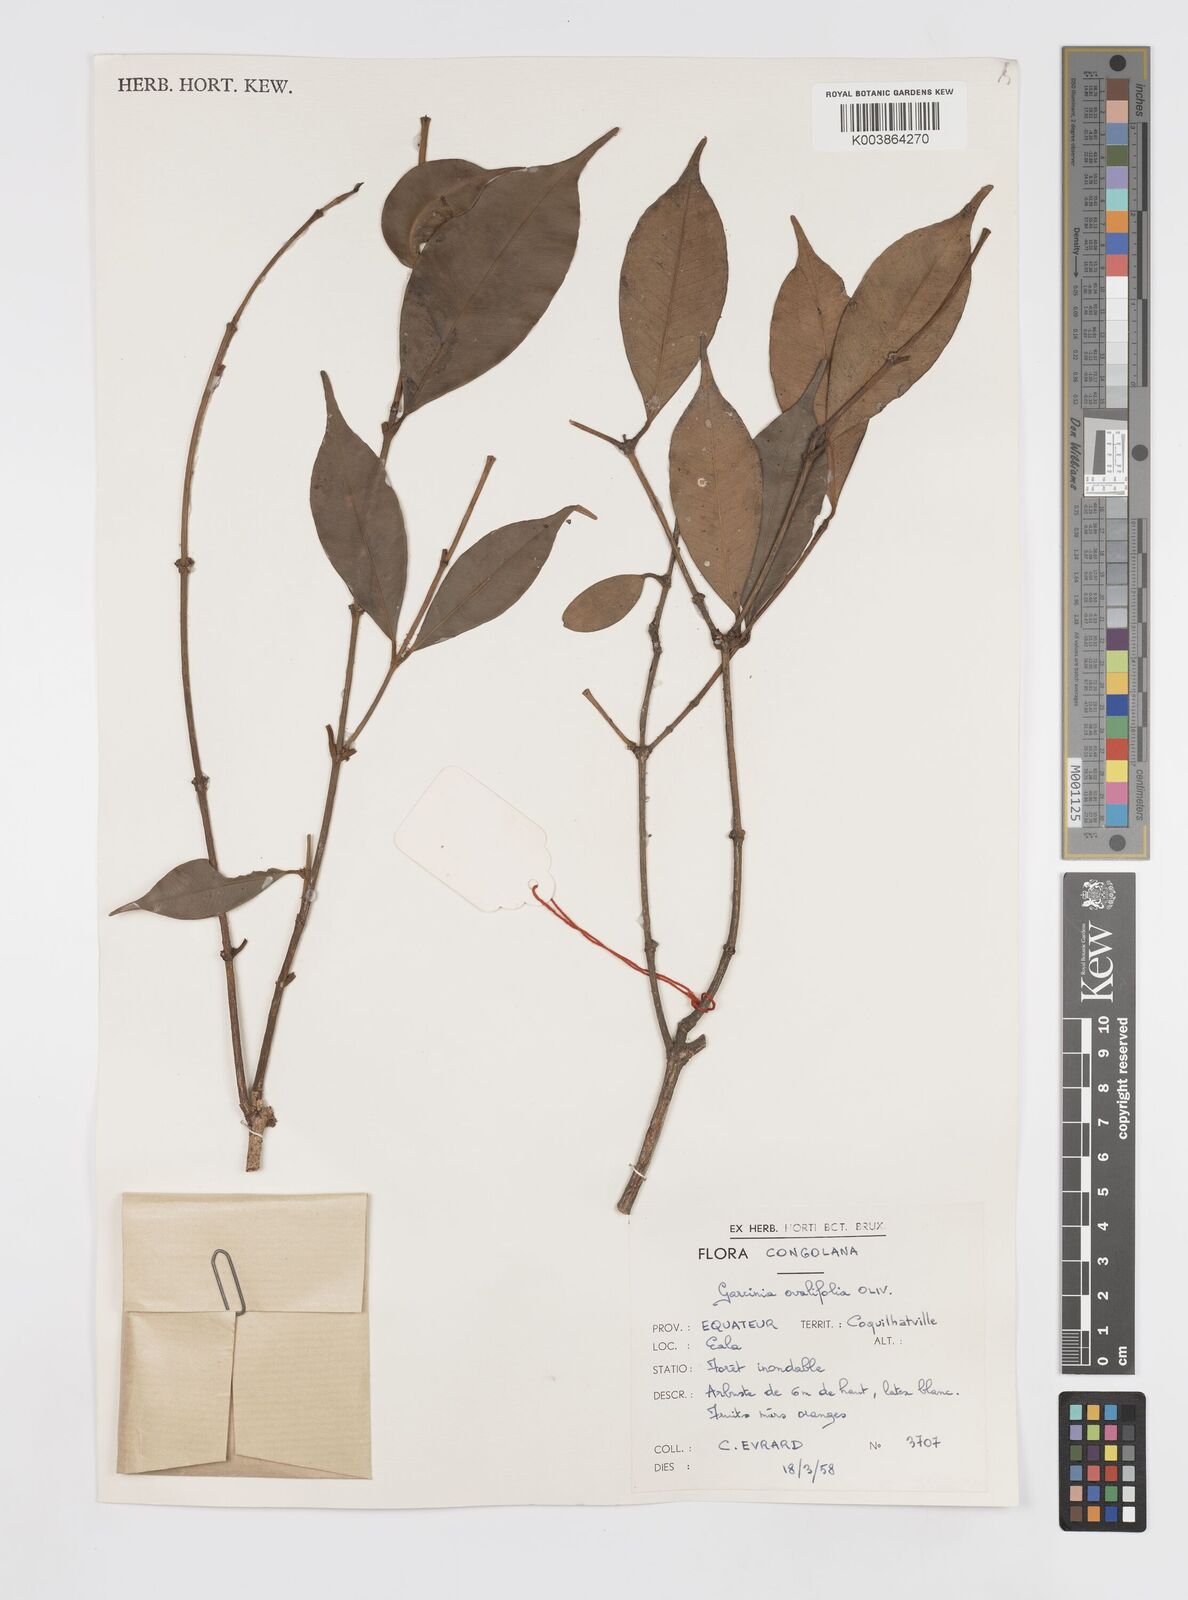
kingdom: Plantae
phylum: Tracheophyta
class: Magnoliopsida
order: Malpighiales
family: Clusiaceae
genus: Garcinia
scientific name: Garcinia ovalifolia
